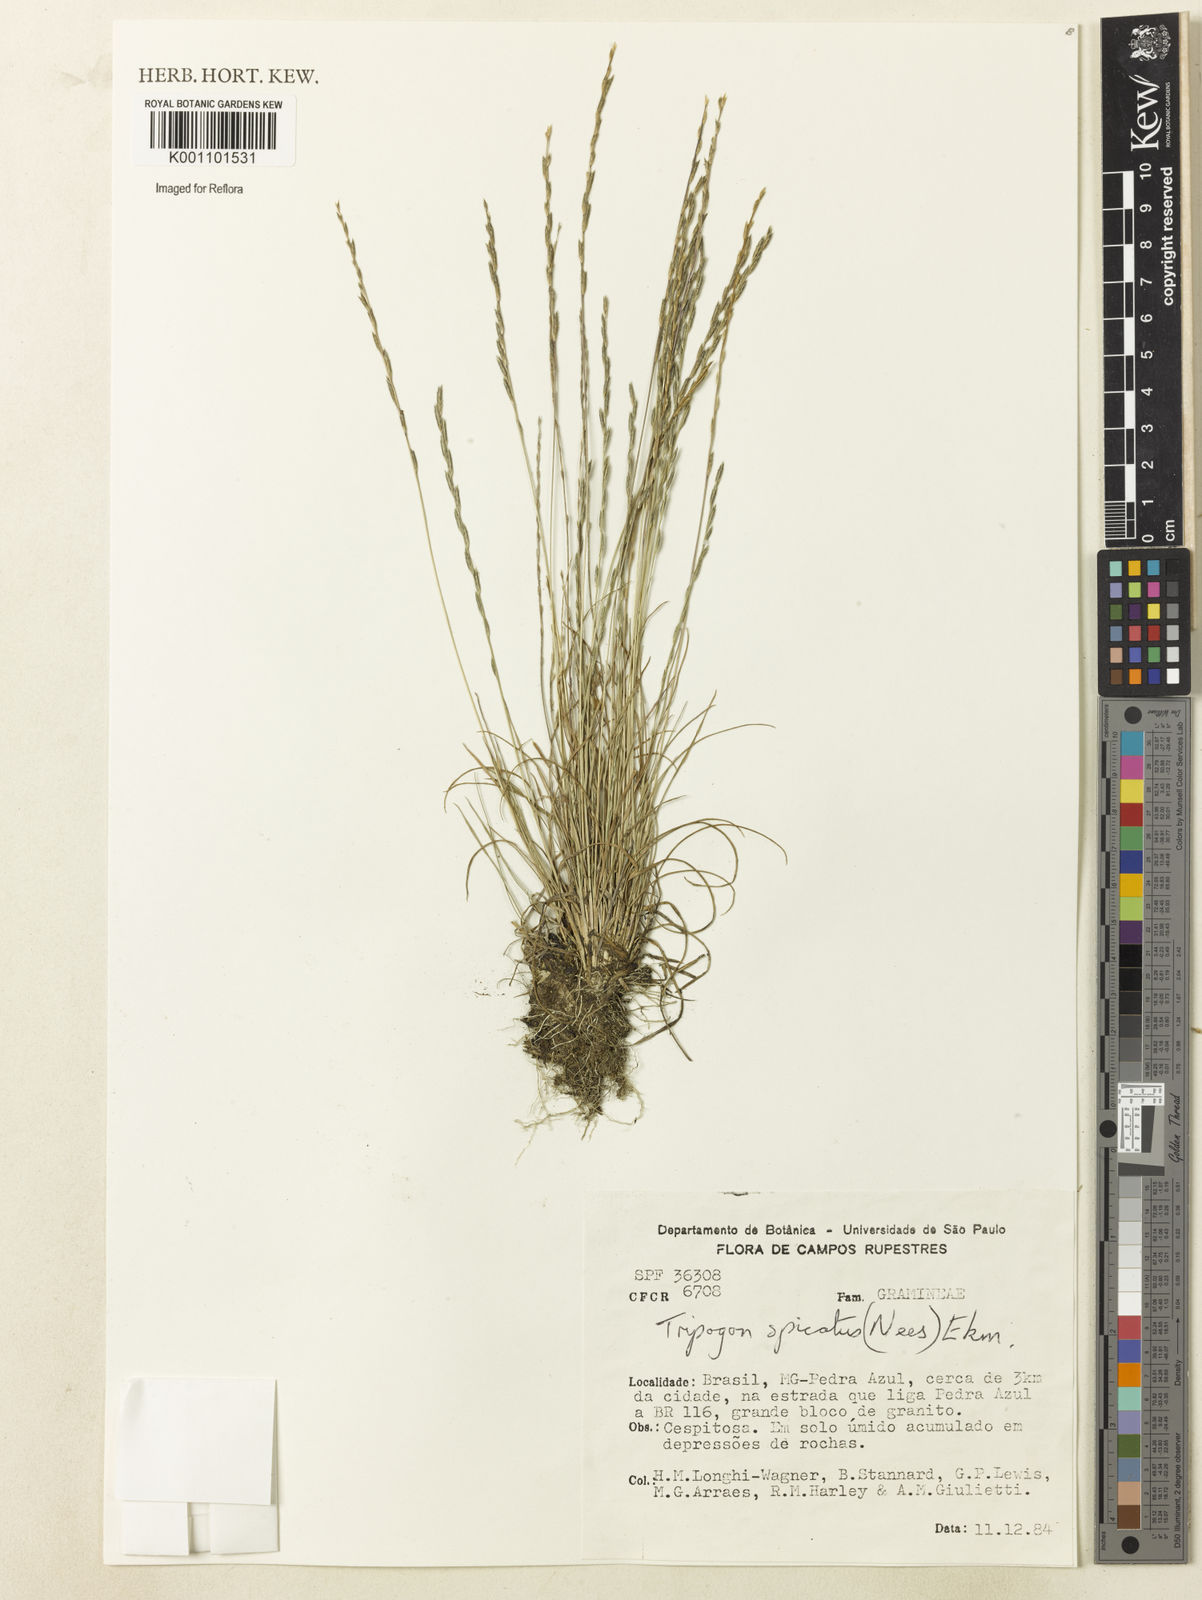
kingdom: Plantae
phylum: Tracheophyta
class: Liliopsida
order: Poales
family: Poaceae
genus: Tripogonella
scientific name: Tripogonella spicata
